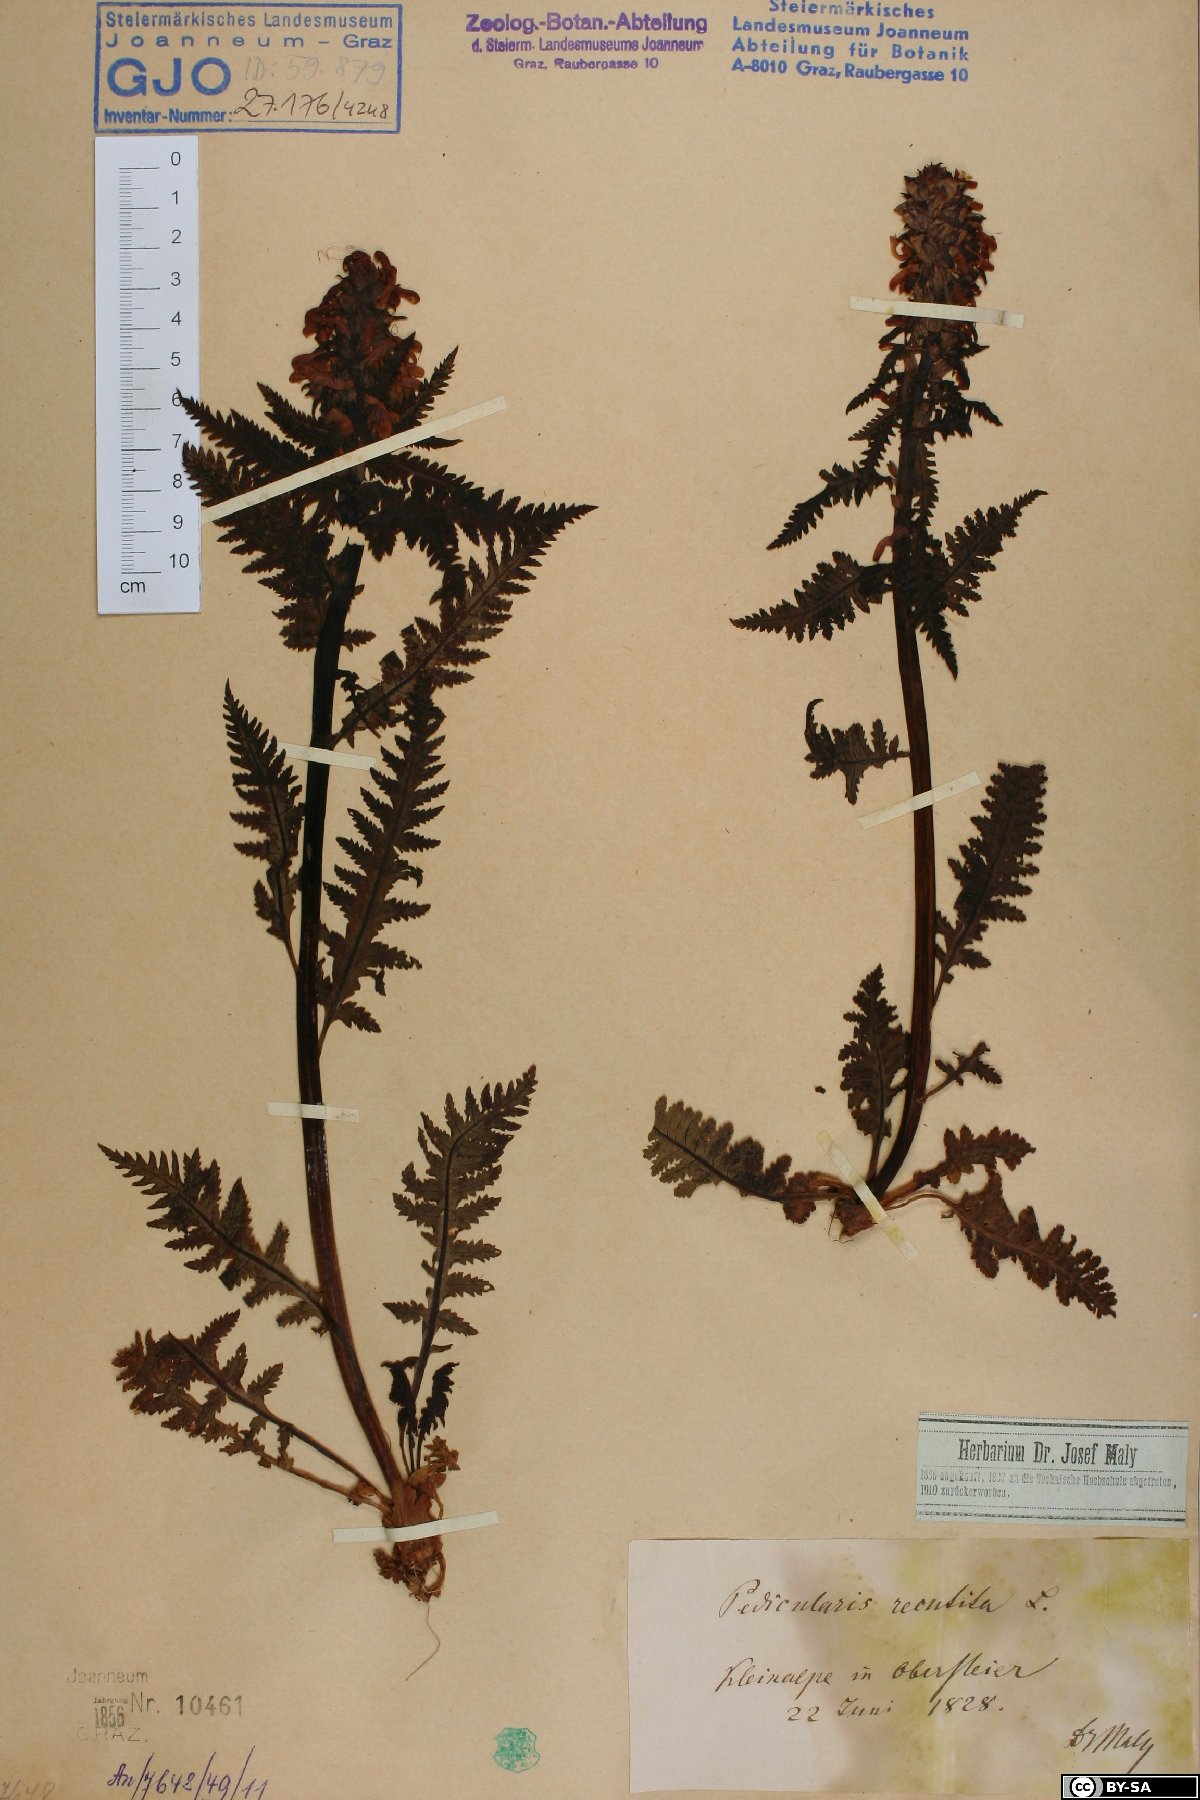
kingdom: Plantae
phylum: Tracheophyta
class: Magnoliopsida
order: Lamiales
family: Orobanchaceae
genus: Pedicularis
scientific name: Pedicularis recutita
